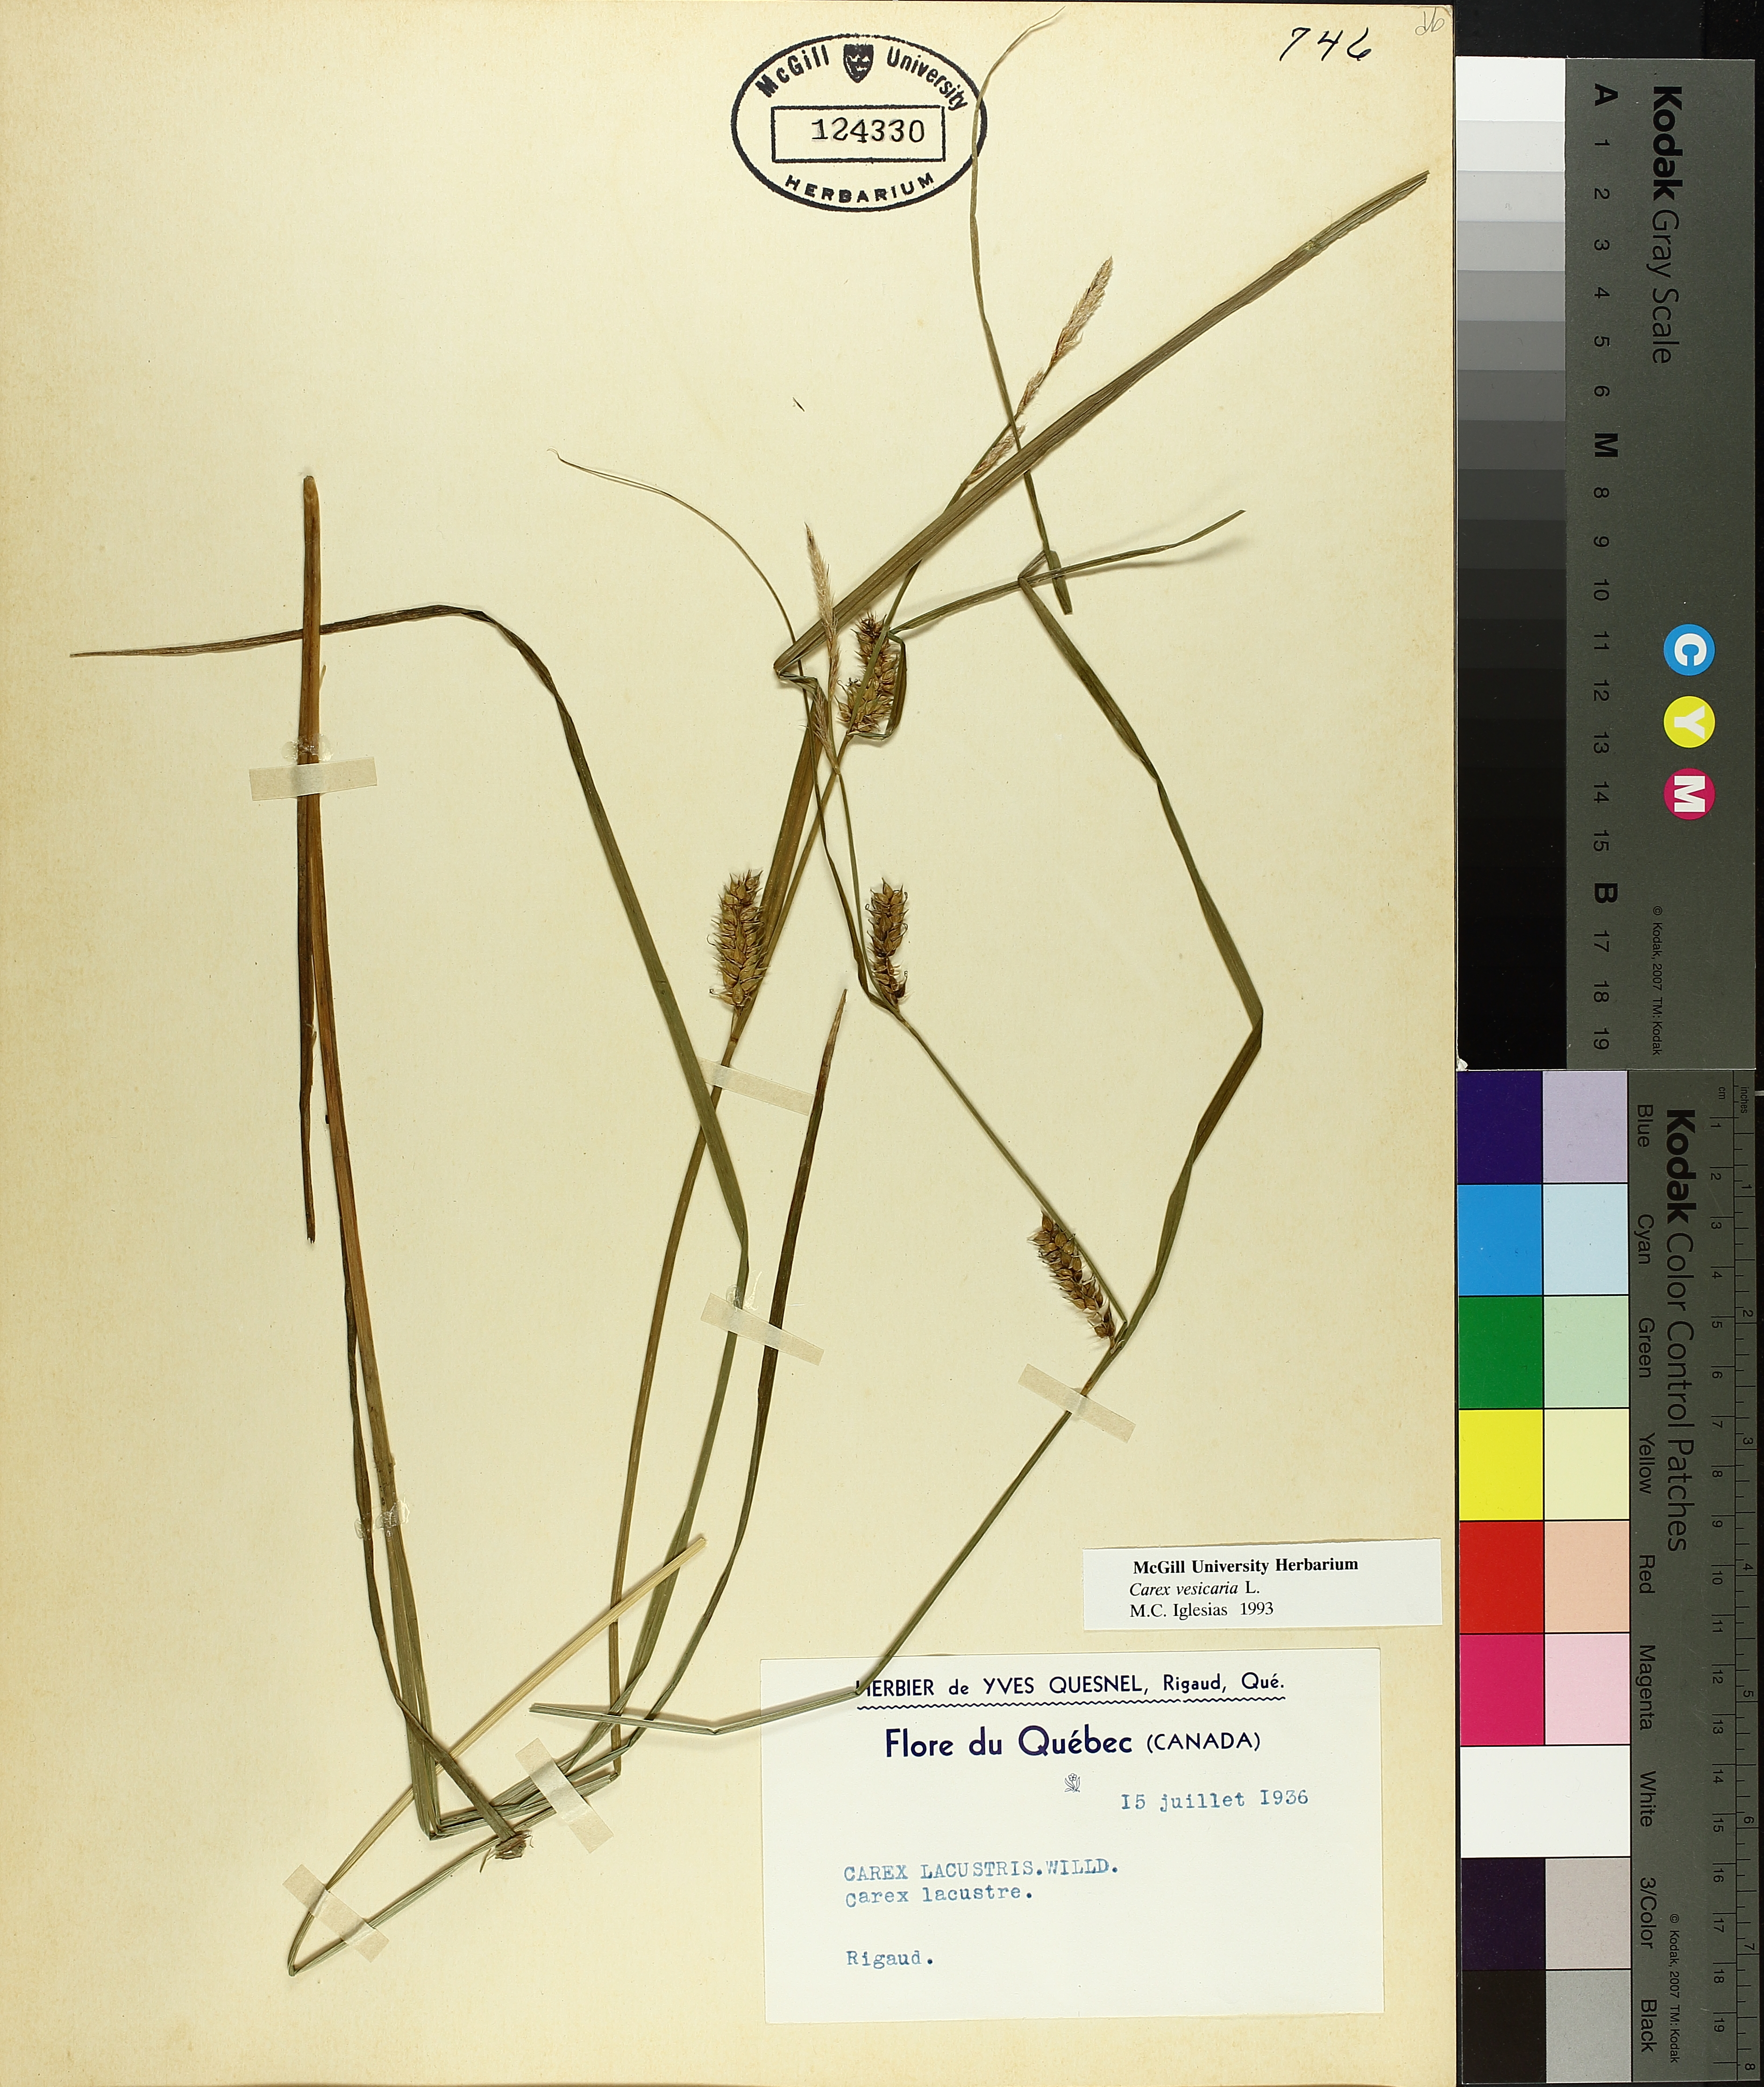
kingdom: Plantae
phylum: Tracheophyta
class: Liliopsida
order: Poales
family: Cyperaceae
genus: Carex
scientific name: Carex vesicaria
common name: Bladder-sedge
